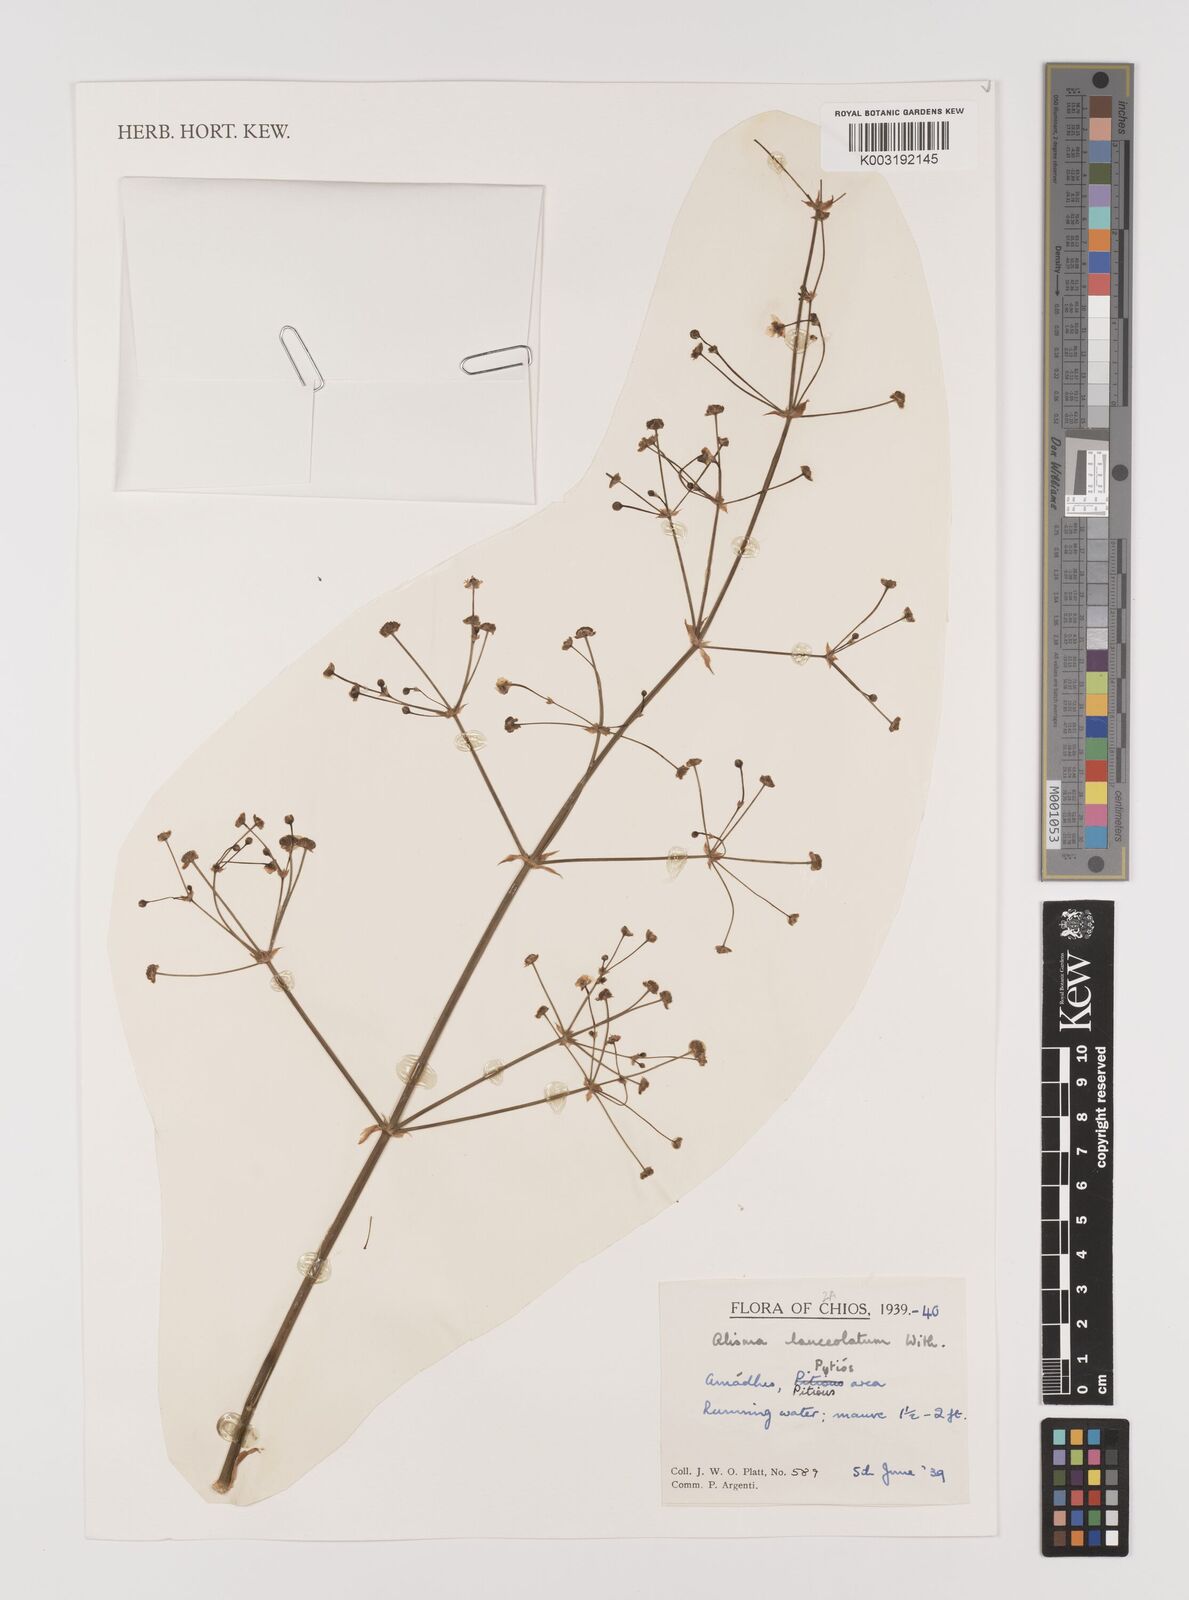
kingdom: Plantae
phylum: Tracheophyta
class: Liliopsida
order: Alismatales
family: Alismataceae
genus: Alisma
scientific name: Alisma lanceolatum
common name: Narrow-leaved water-plantain
